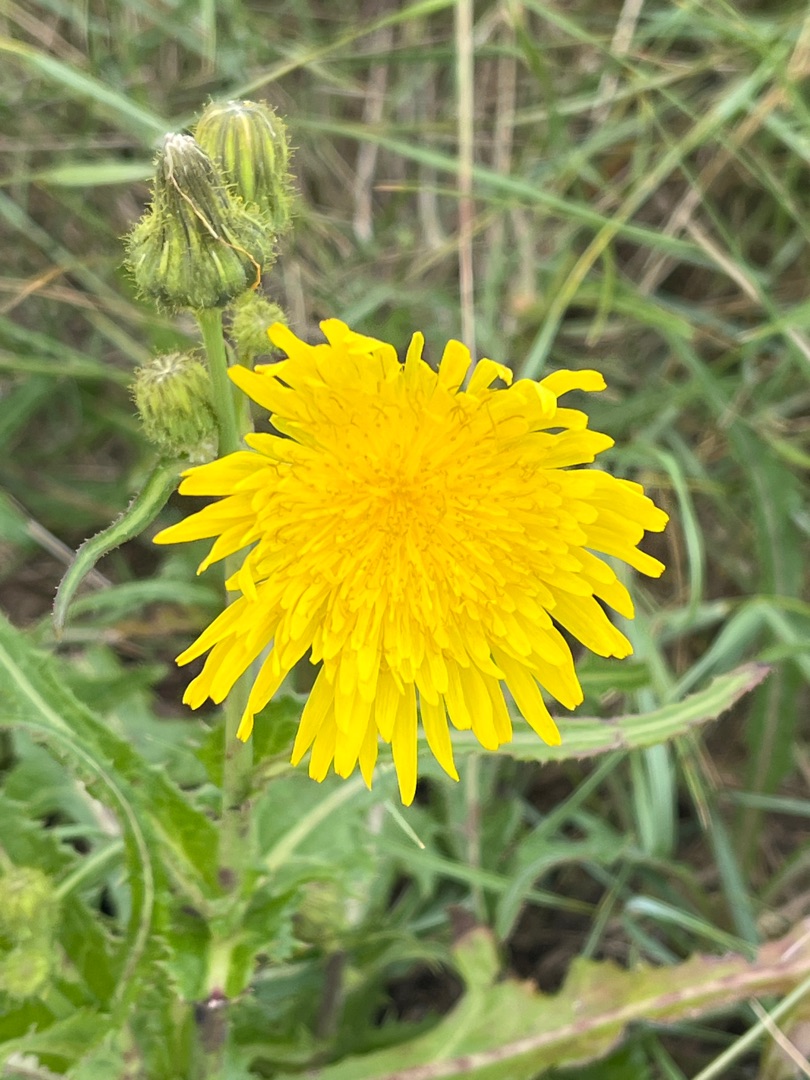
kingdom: Plantae
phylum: Tracheophyta
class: Magnoliopsida
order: Asterales
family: Asteraceae
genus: Sonchus
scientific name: Sonchus arvensis
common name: Ager-svinemælk
